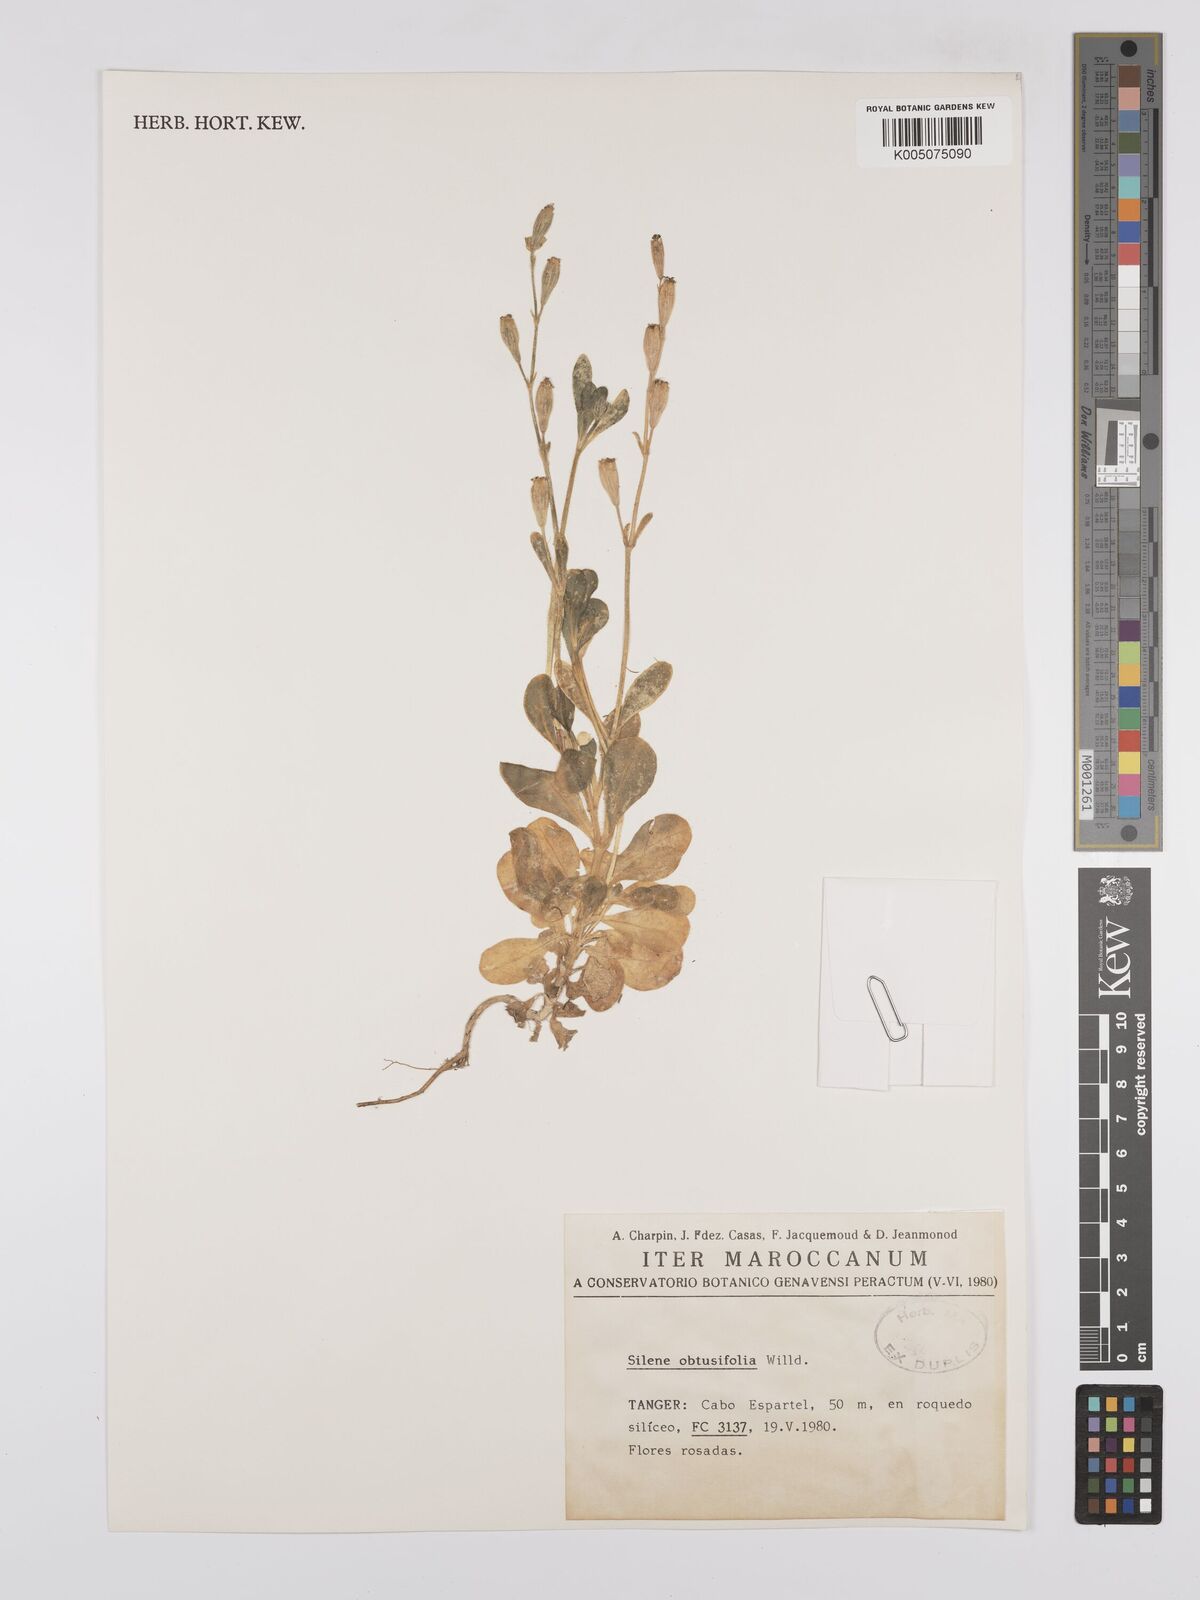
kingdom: Plantae
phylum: Tracheophyta
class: Magnoliopsida
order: Caryophyllales
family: Caryophyllaceae
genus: Silene
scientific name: Silene obtusifolia
